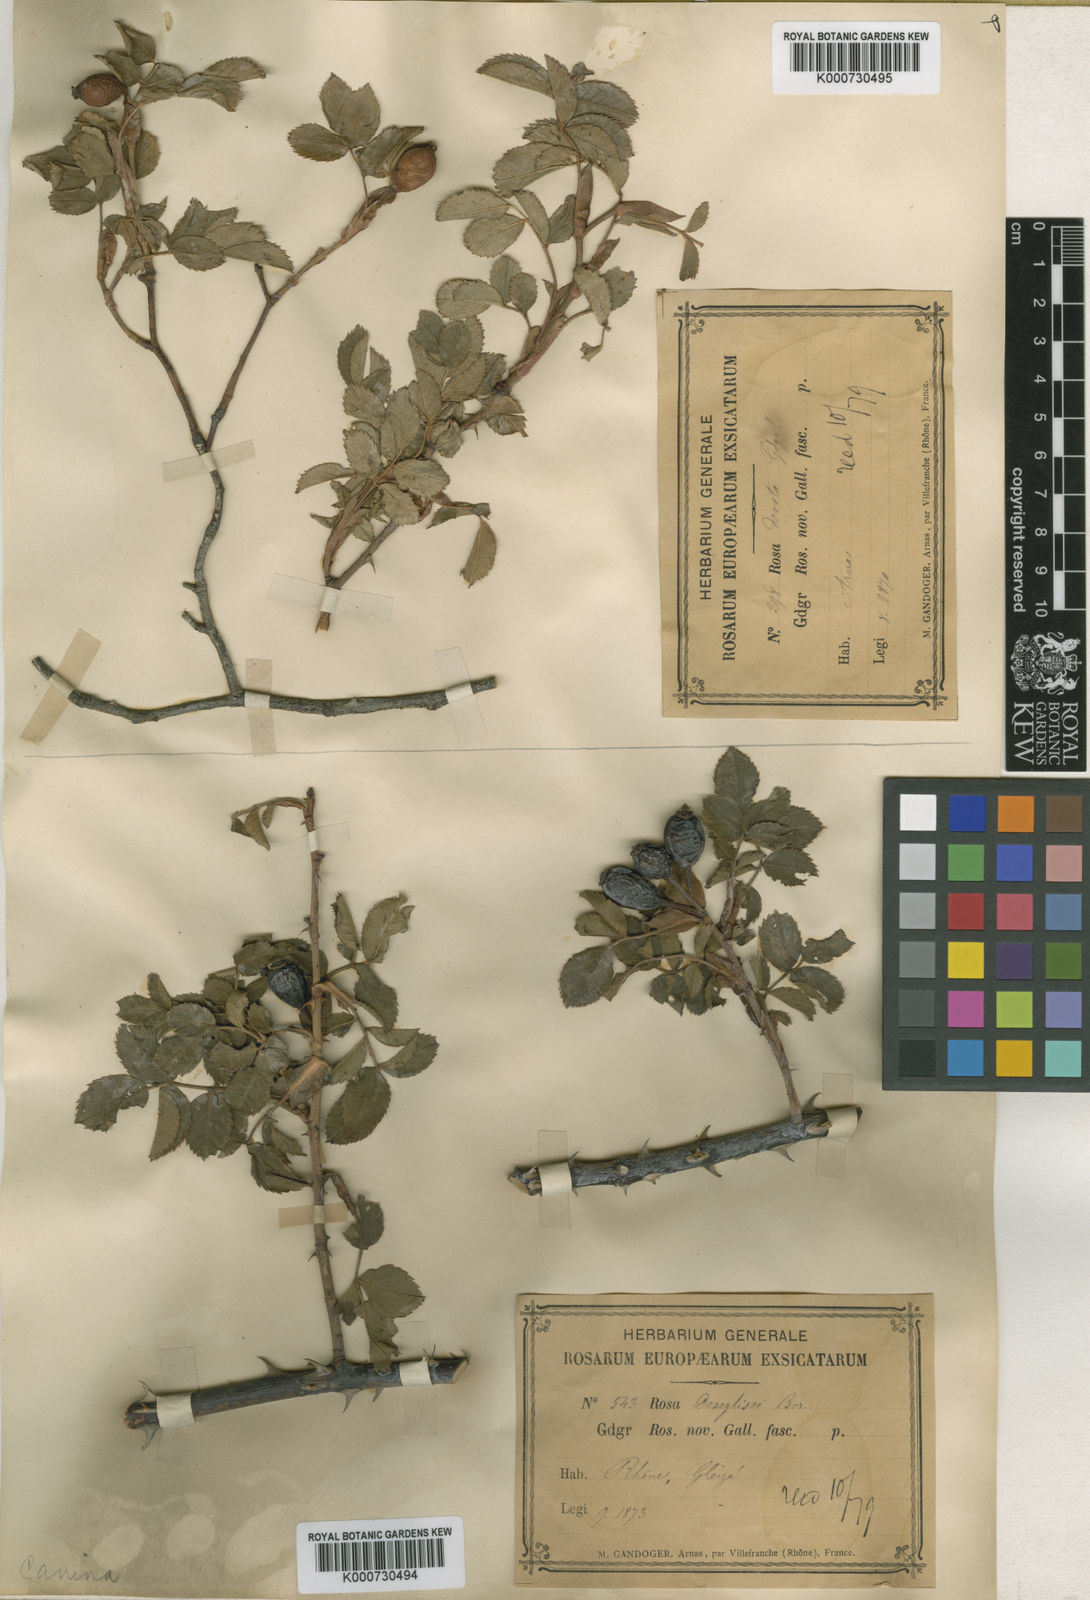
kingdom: Plantae
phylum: Tracheophyta
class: Magnoliopsida
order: Rosales
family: Rosaceae
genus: Rosa
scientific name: Rosa canina
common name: Dog rose
